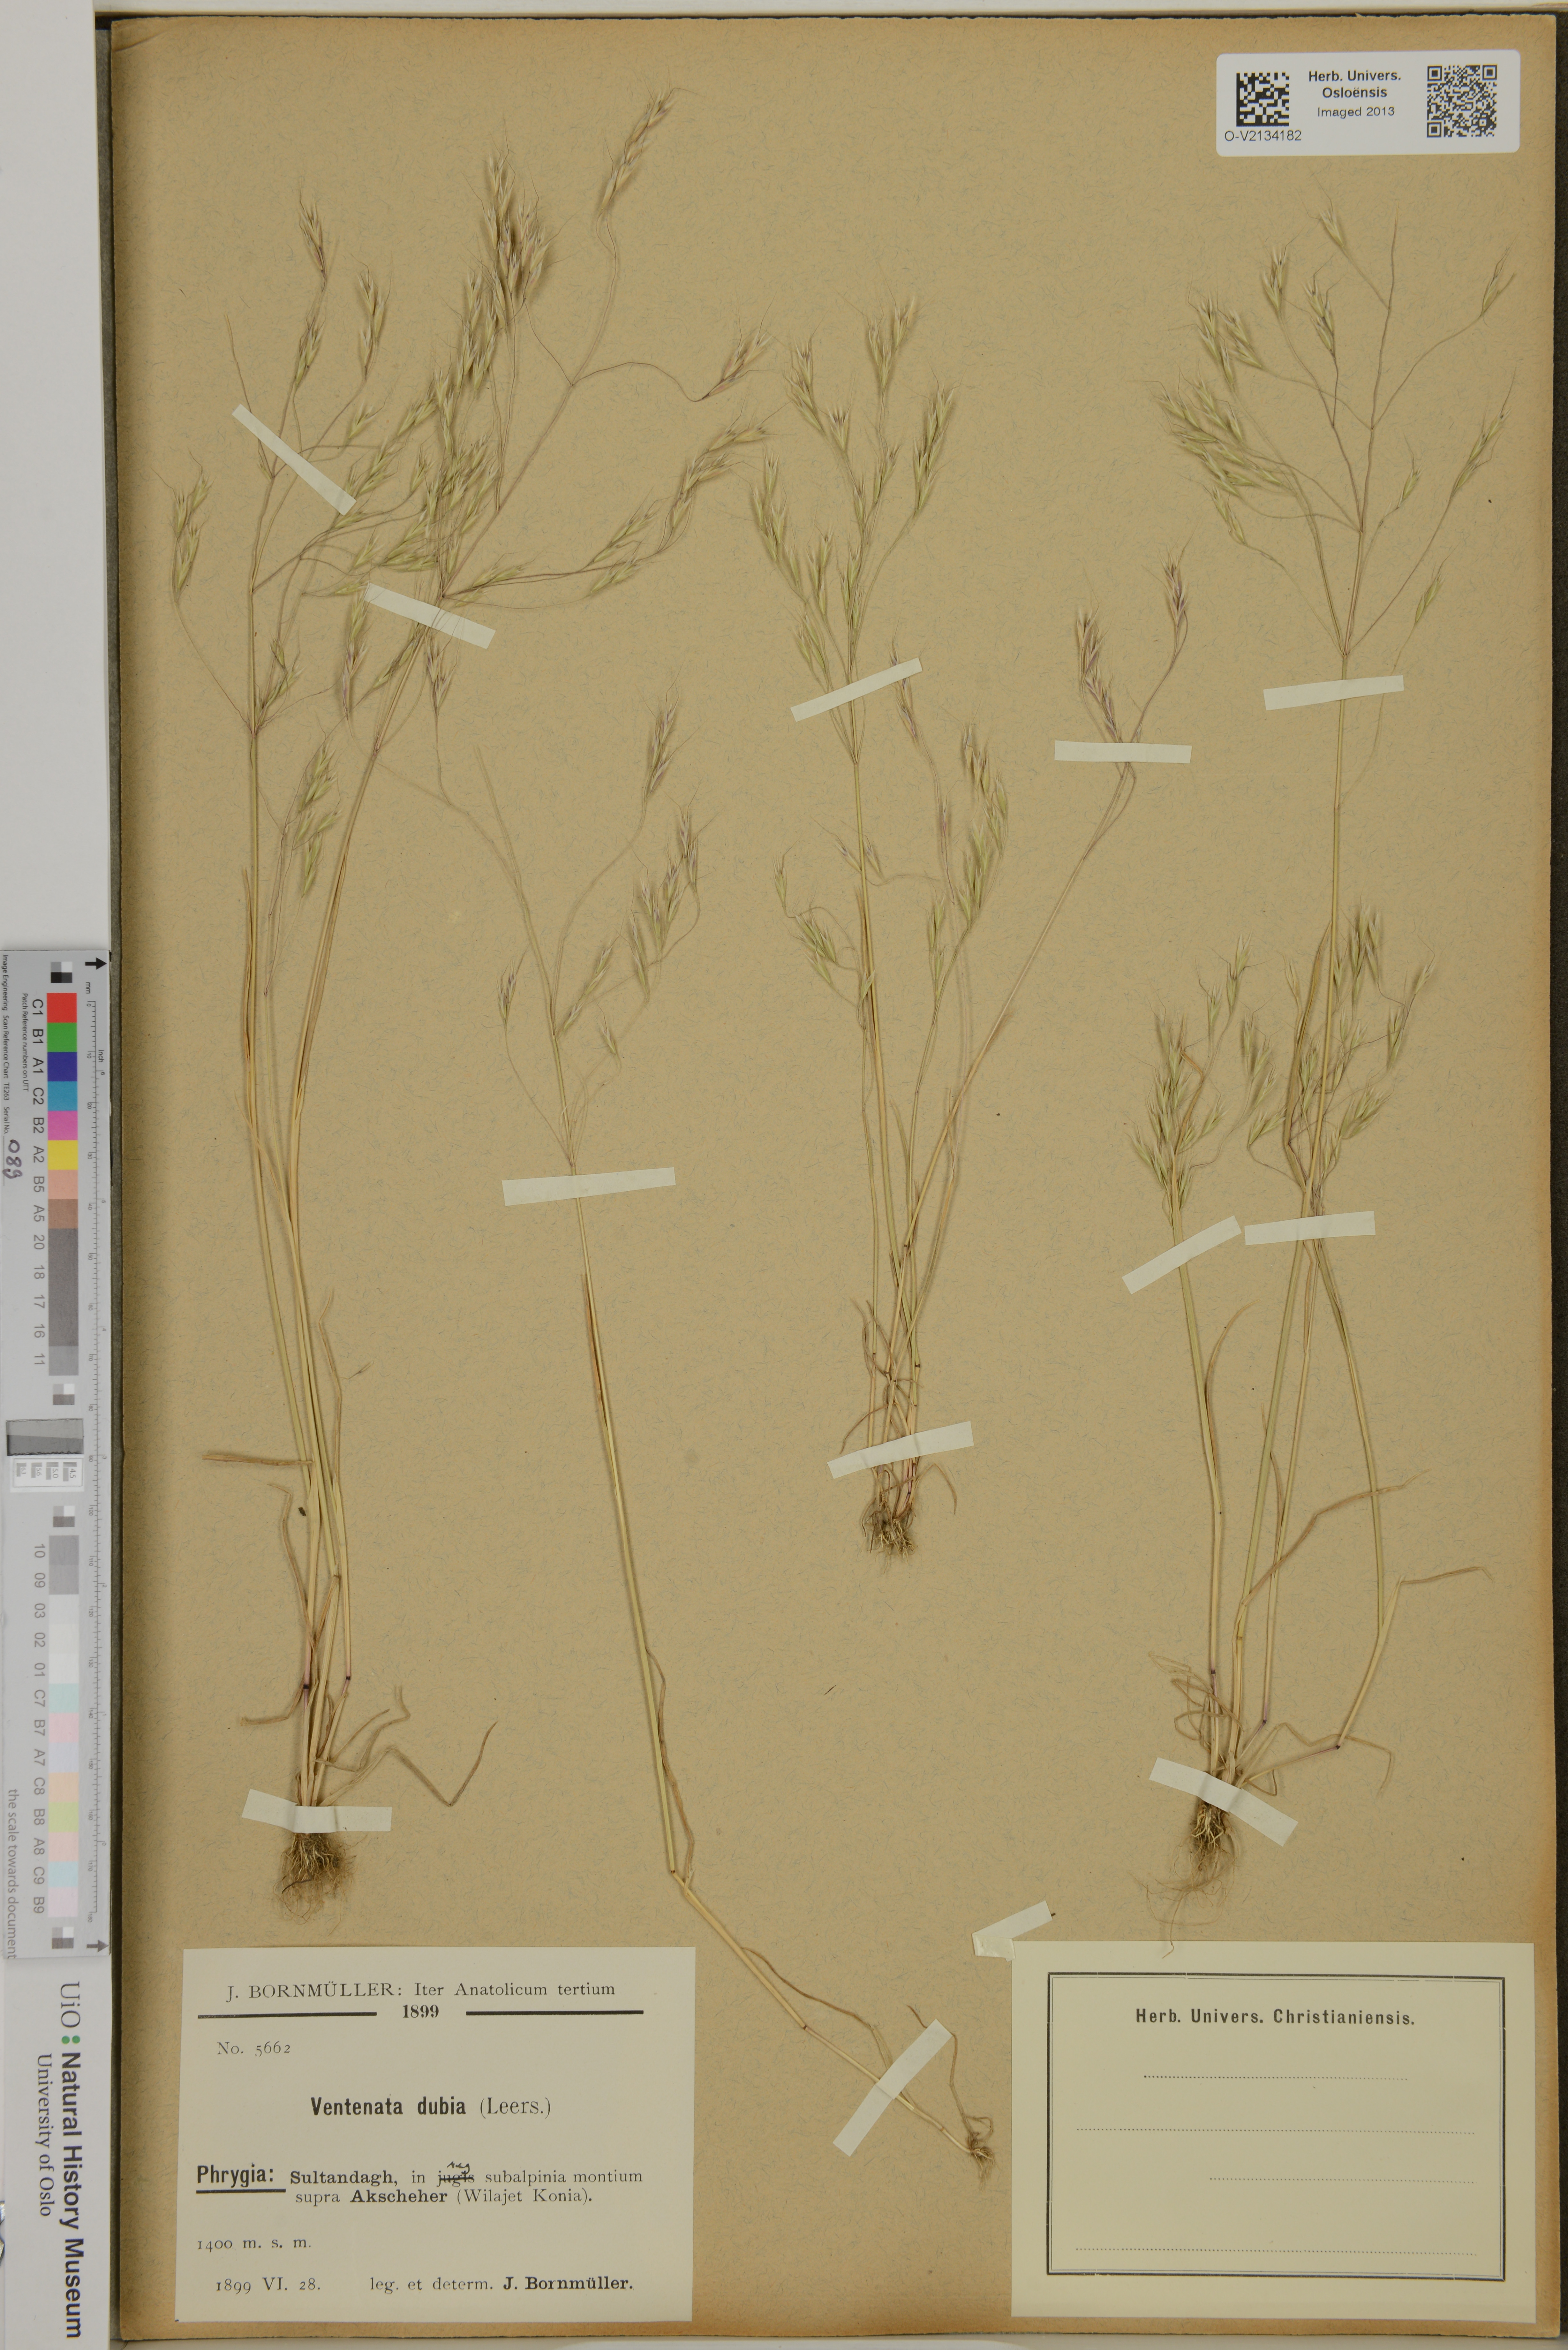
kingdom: Plantae
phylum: Tracheophyta
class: Liliopsida
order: Poales
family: Poaceae
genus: Ventenata
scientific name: Ventenata dubia
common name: North africa grass
